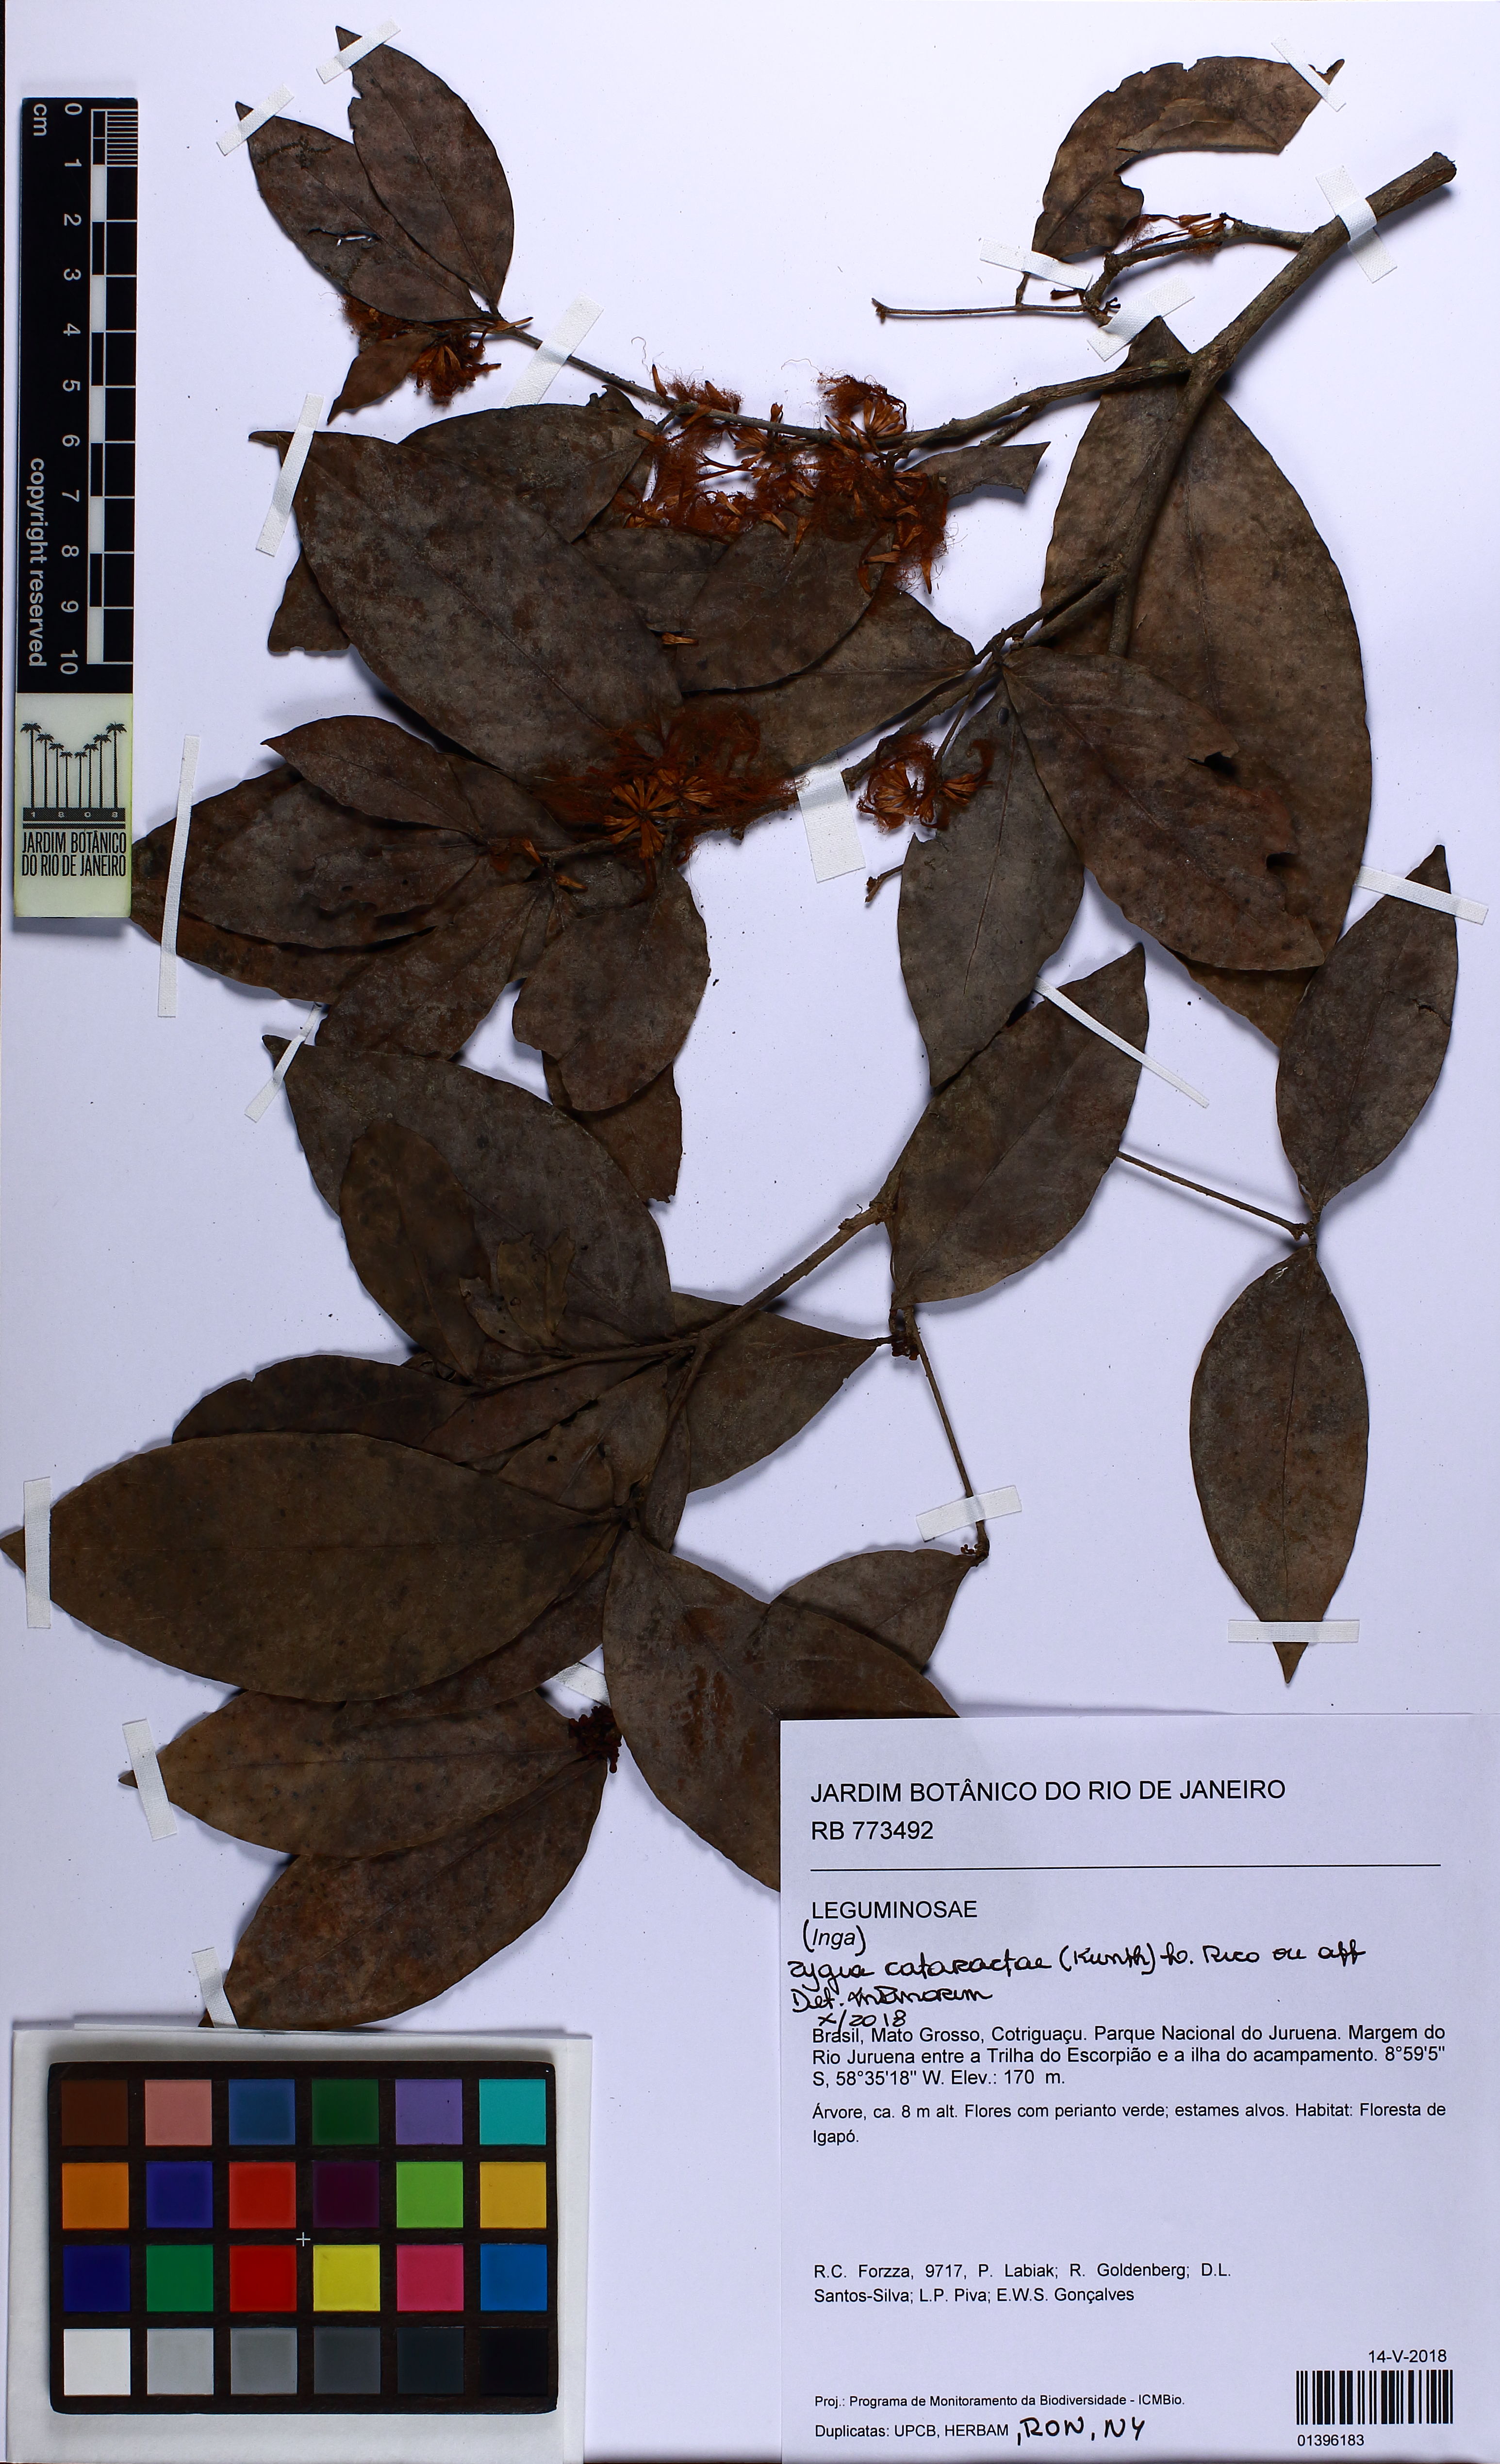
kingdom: Plantae
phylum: Tracheophyta
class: Magnoliopsida
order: Fabales
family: Fabaceae
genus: Zygia
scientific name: Zygia cataractae
